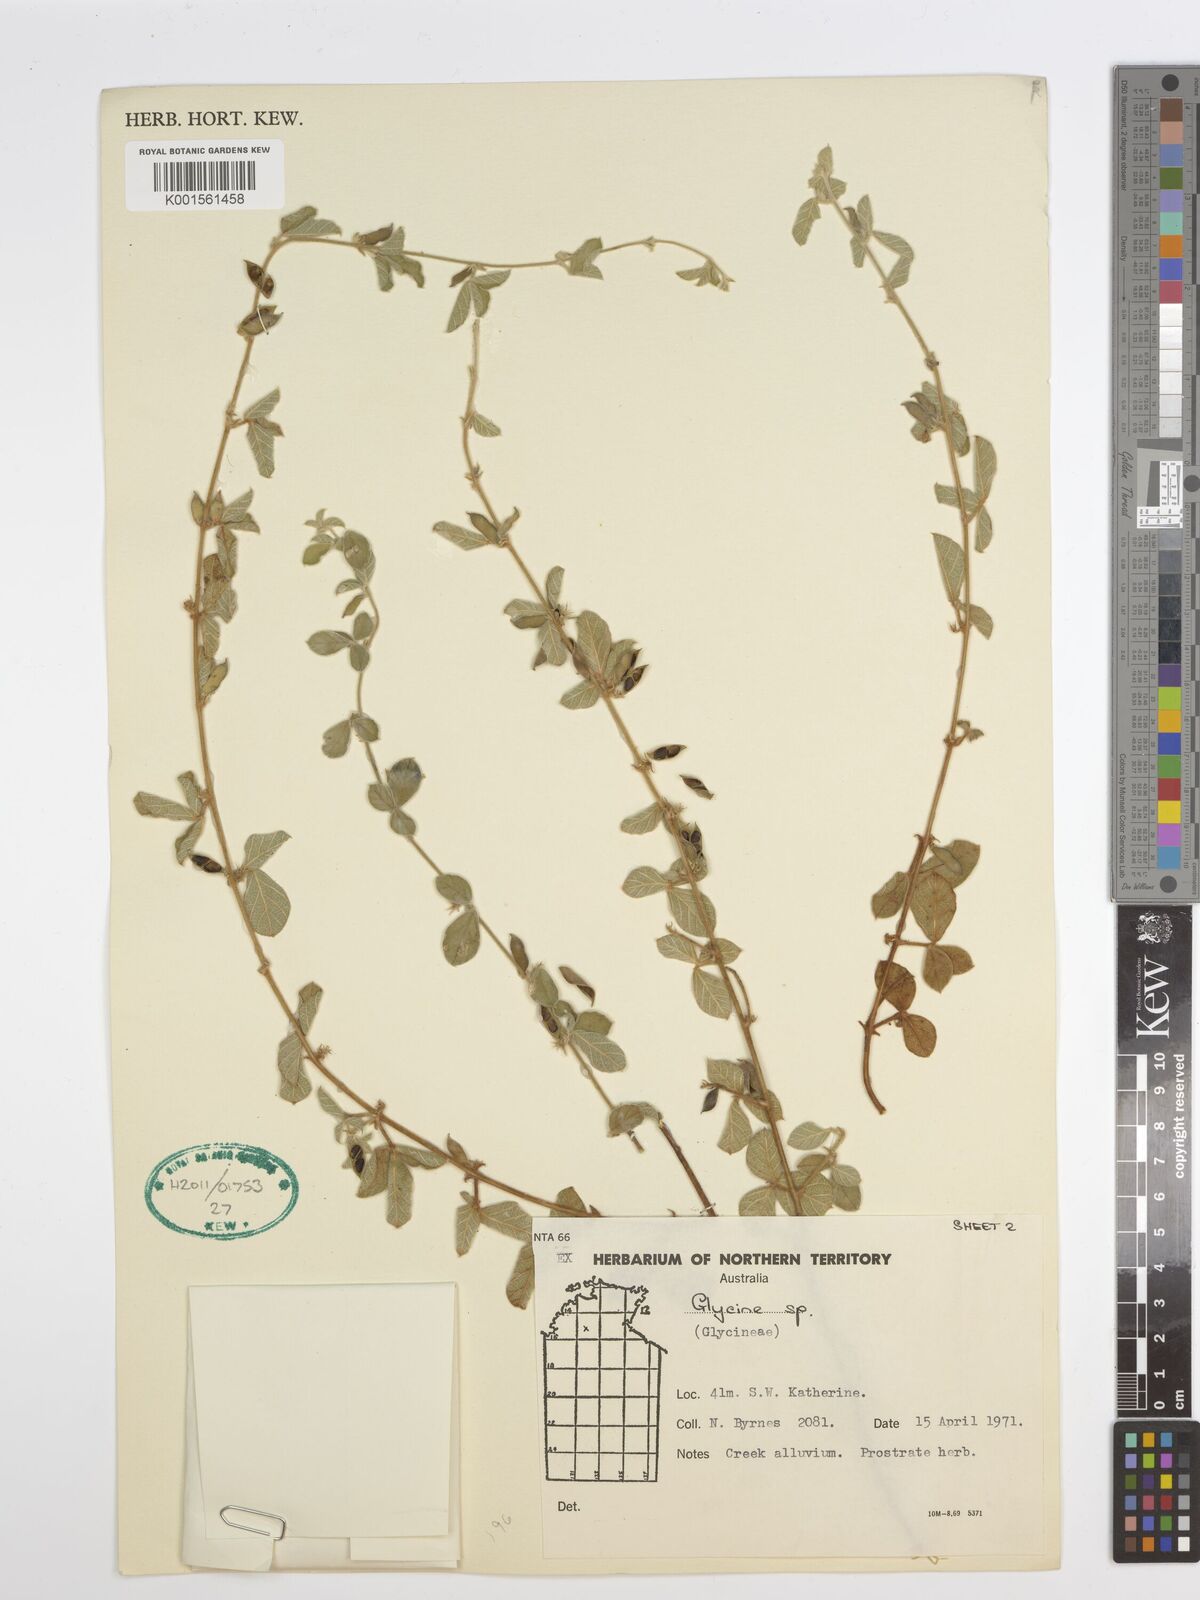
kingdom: Plantae
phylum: Tracheophyta
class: Magnoliopsida
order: Fabales
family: Fabaceae
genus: Glycine
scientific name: Glycine tomentella
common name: Hairy glycine
